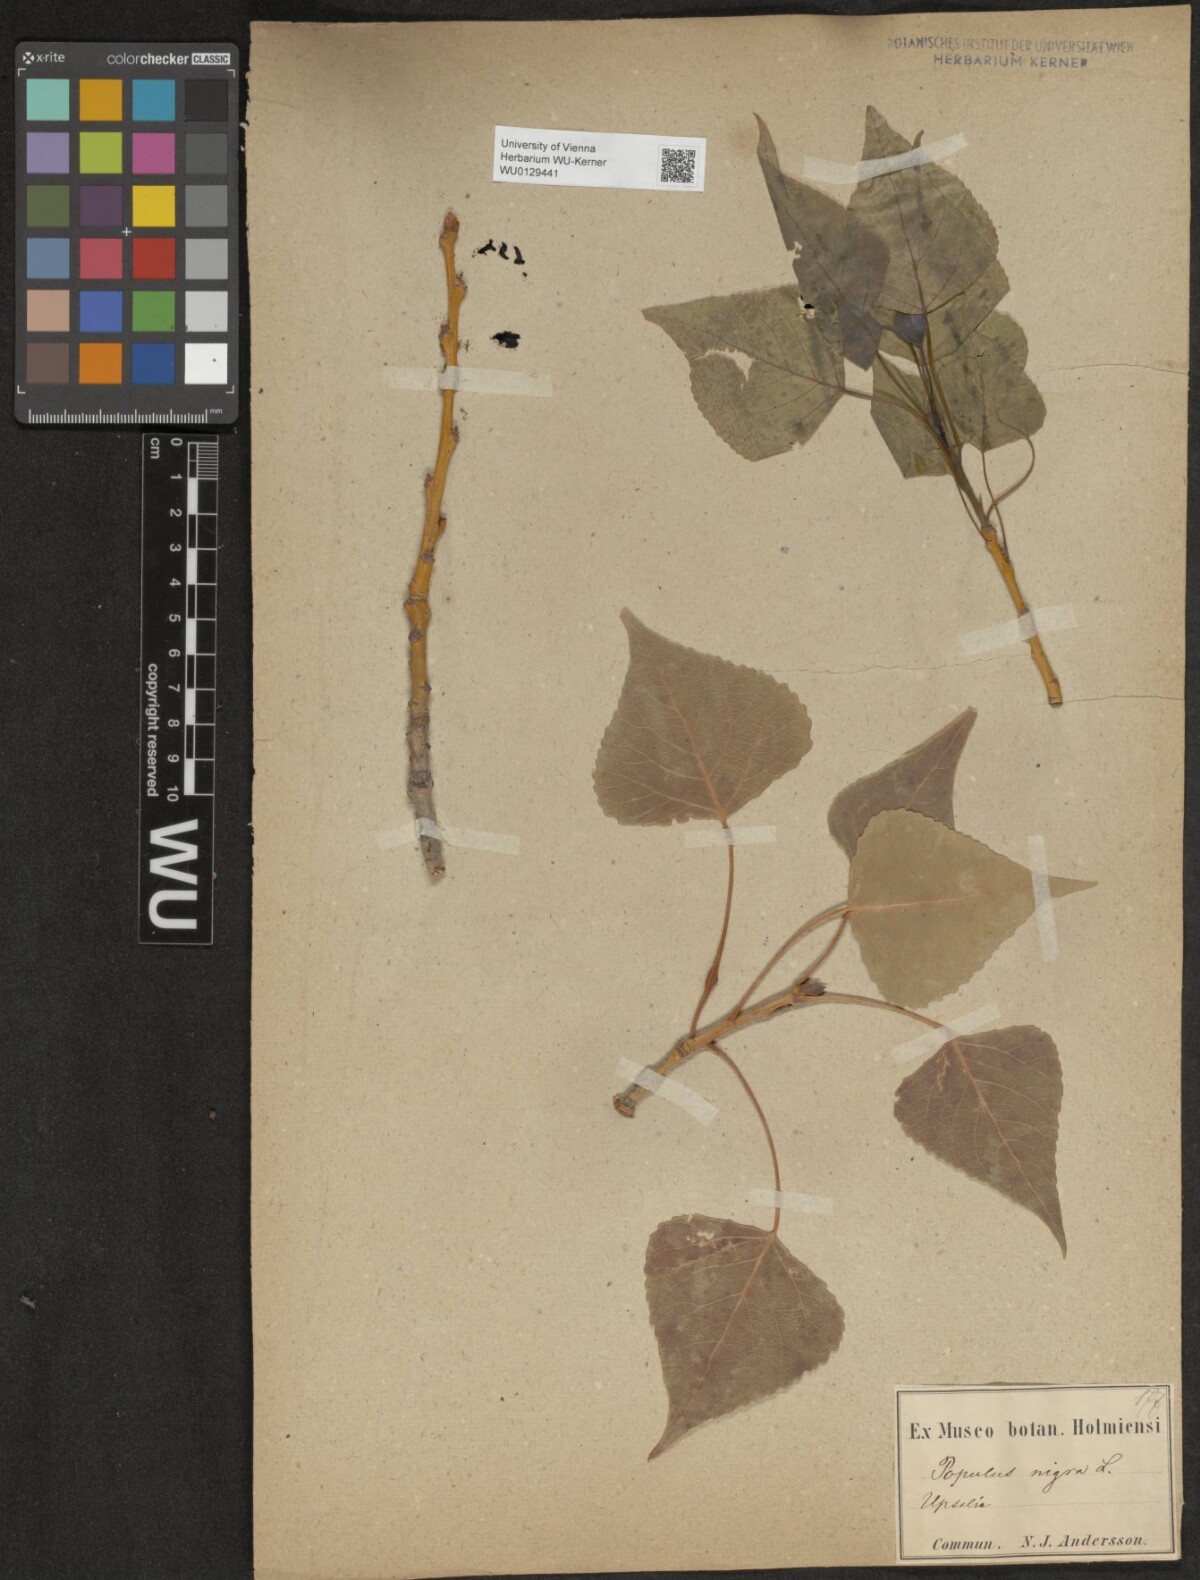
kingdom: Plantae
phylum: Tracheophyta
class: Magnoliopsida
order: Malpighiales
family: Salicaceae
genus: Populus
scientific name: Populus nigra
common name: Black poplar
